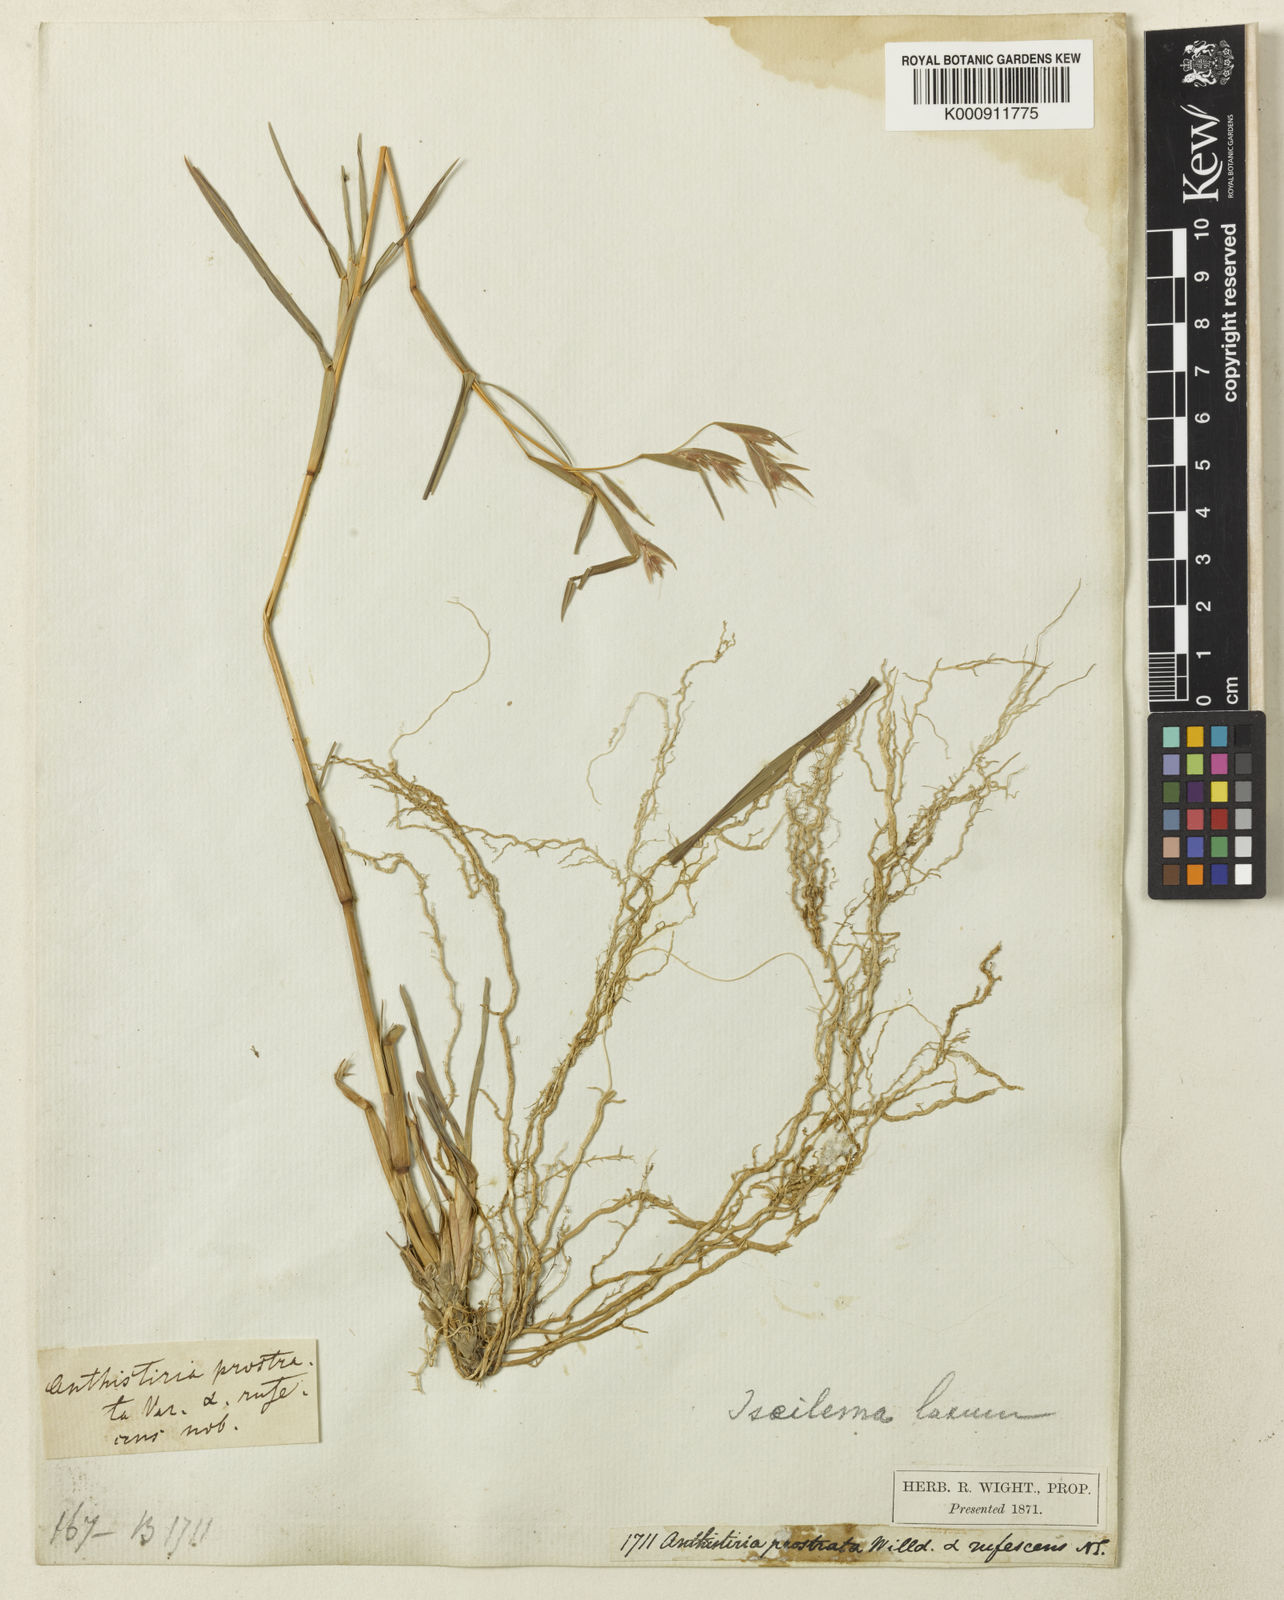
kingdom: Plantae
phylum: Tracheophyta
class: Liliopsida
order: Poales
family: Poaceae
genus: Iseilema
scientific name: Iseilema prostratum
